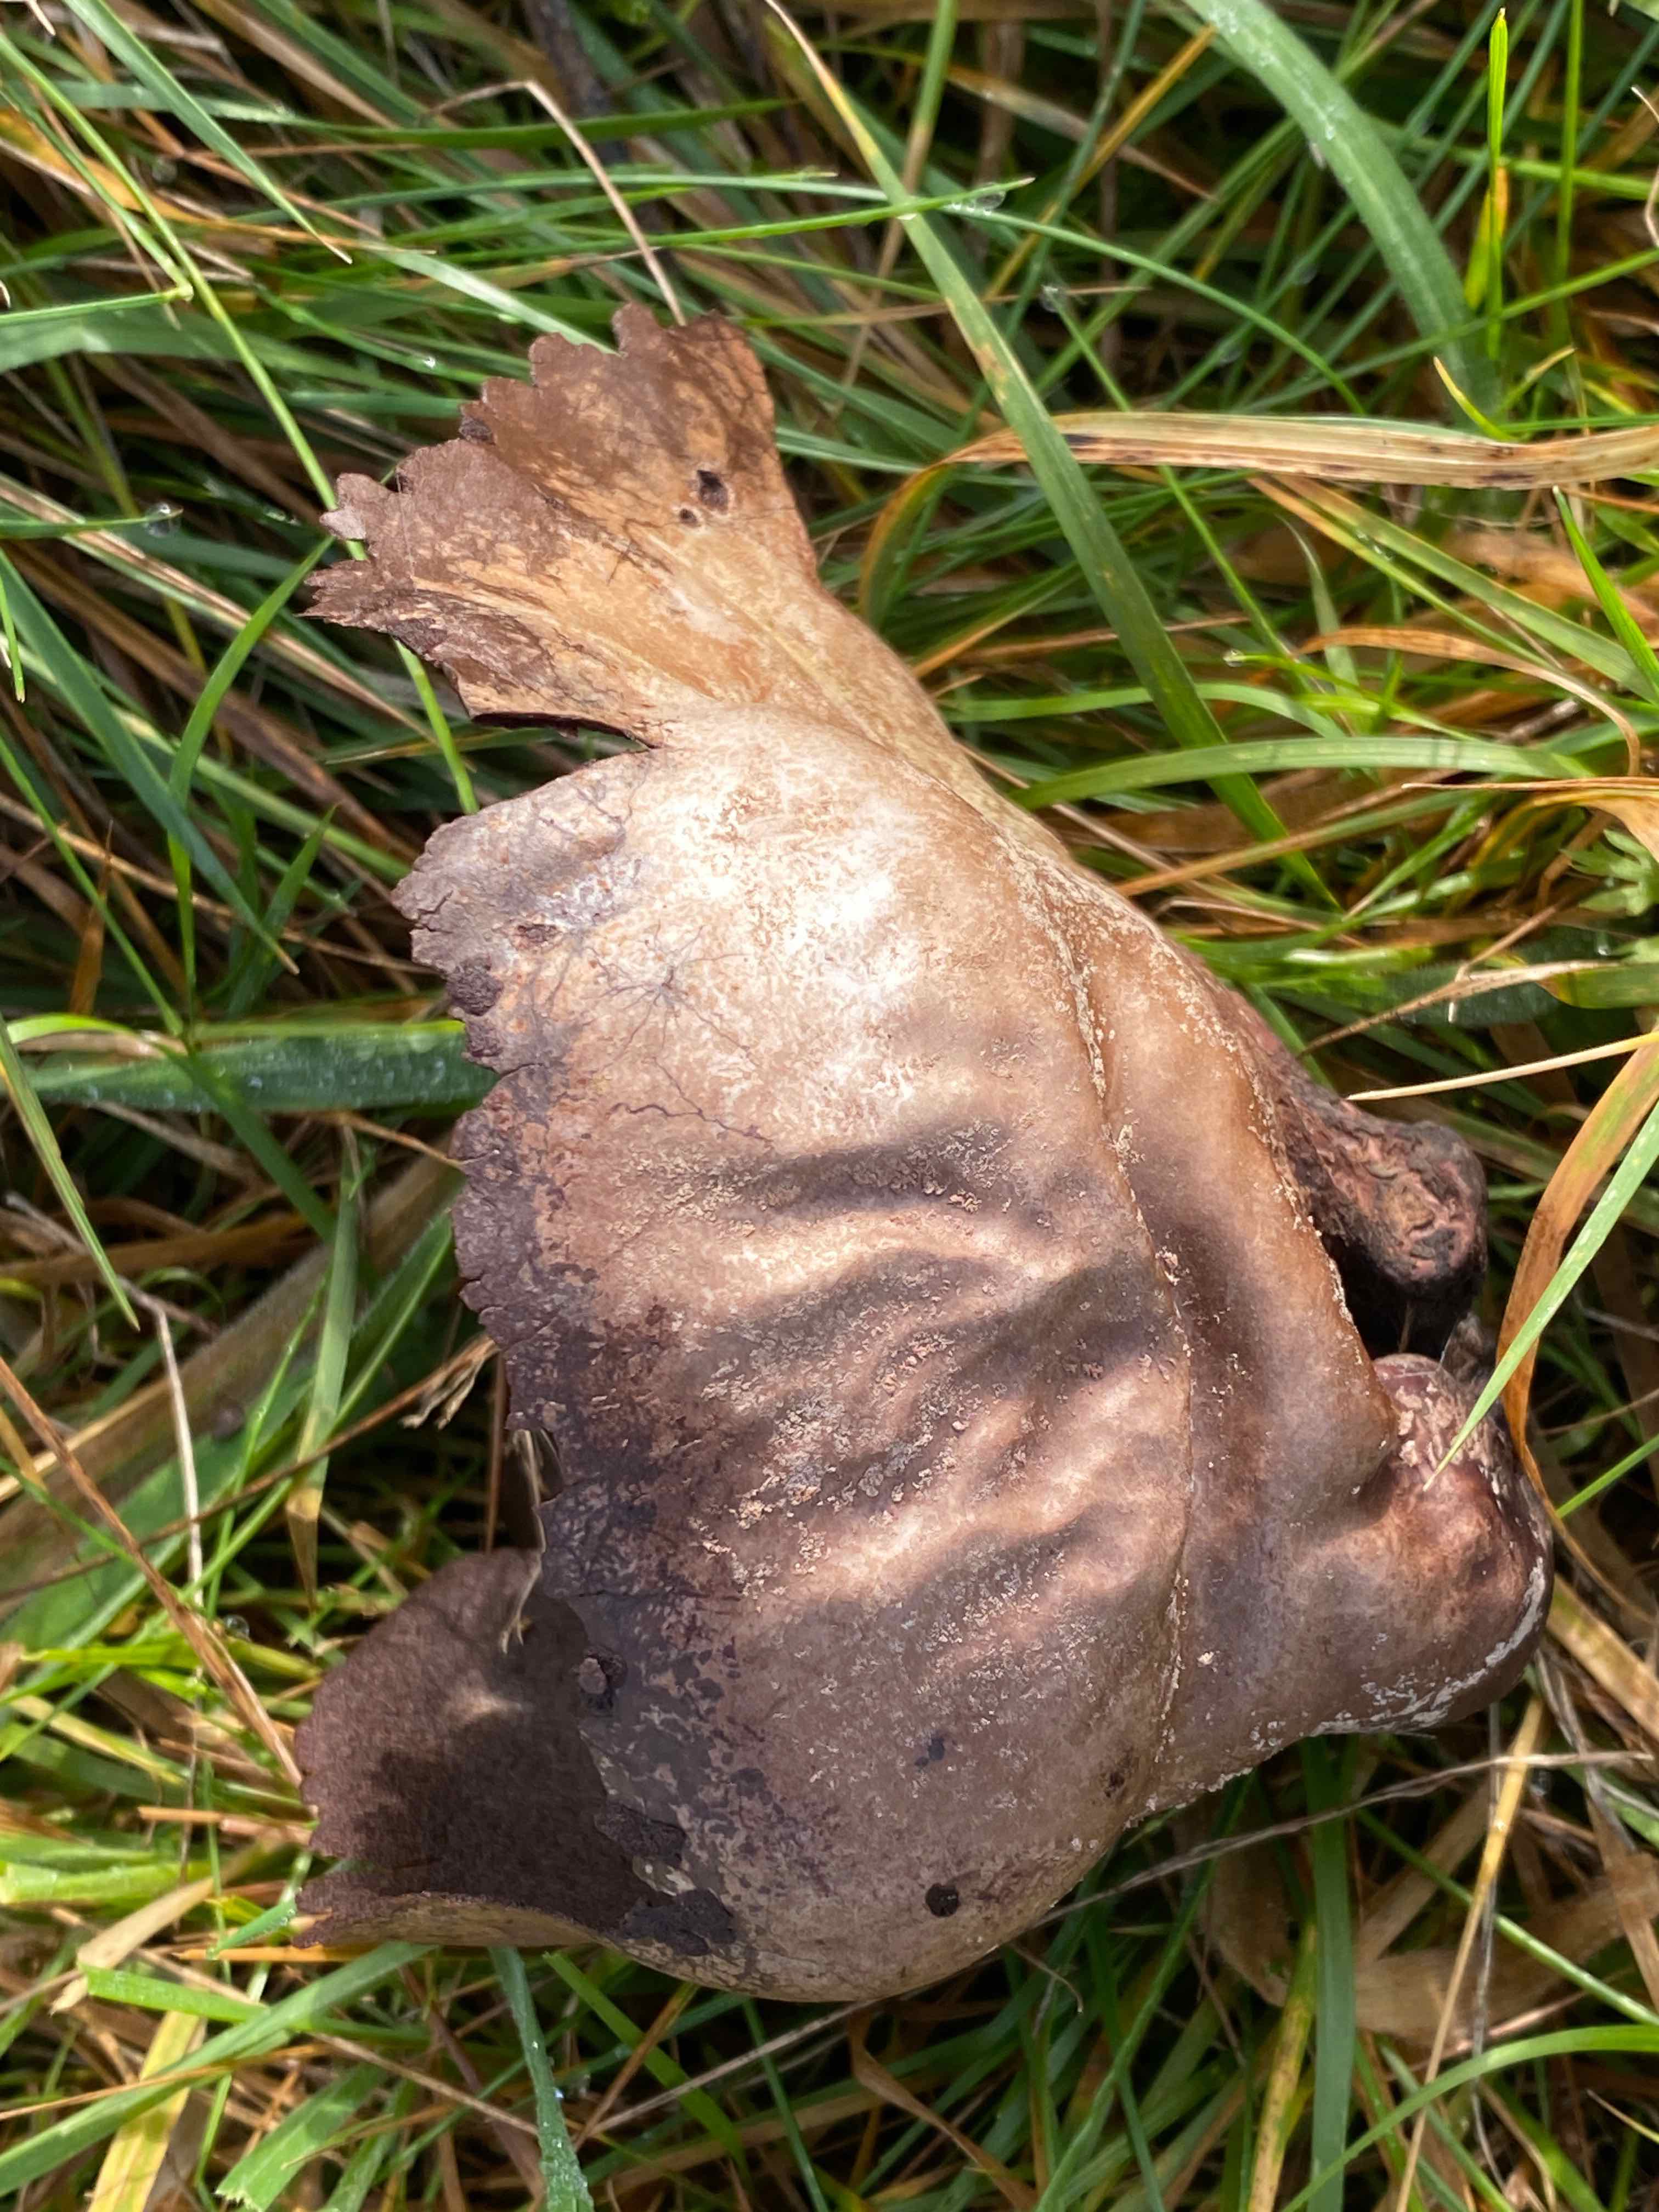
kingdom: Fungi
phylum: Basidiomycota
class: Agaricomycetes
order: Agaricales
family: Lycoperdaceae
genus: Bovistella
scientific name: Bovistella utriformis
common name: skællet støvbold
